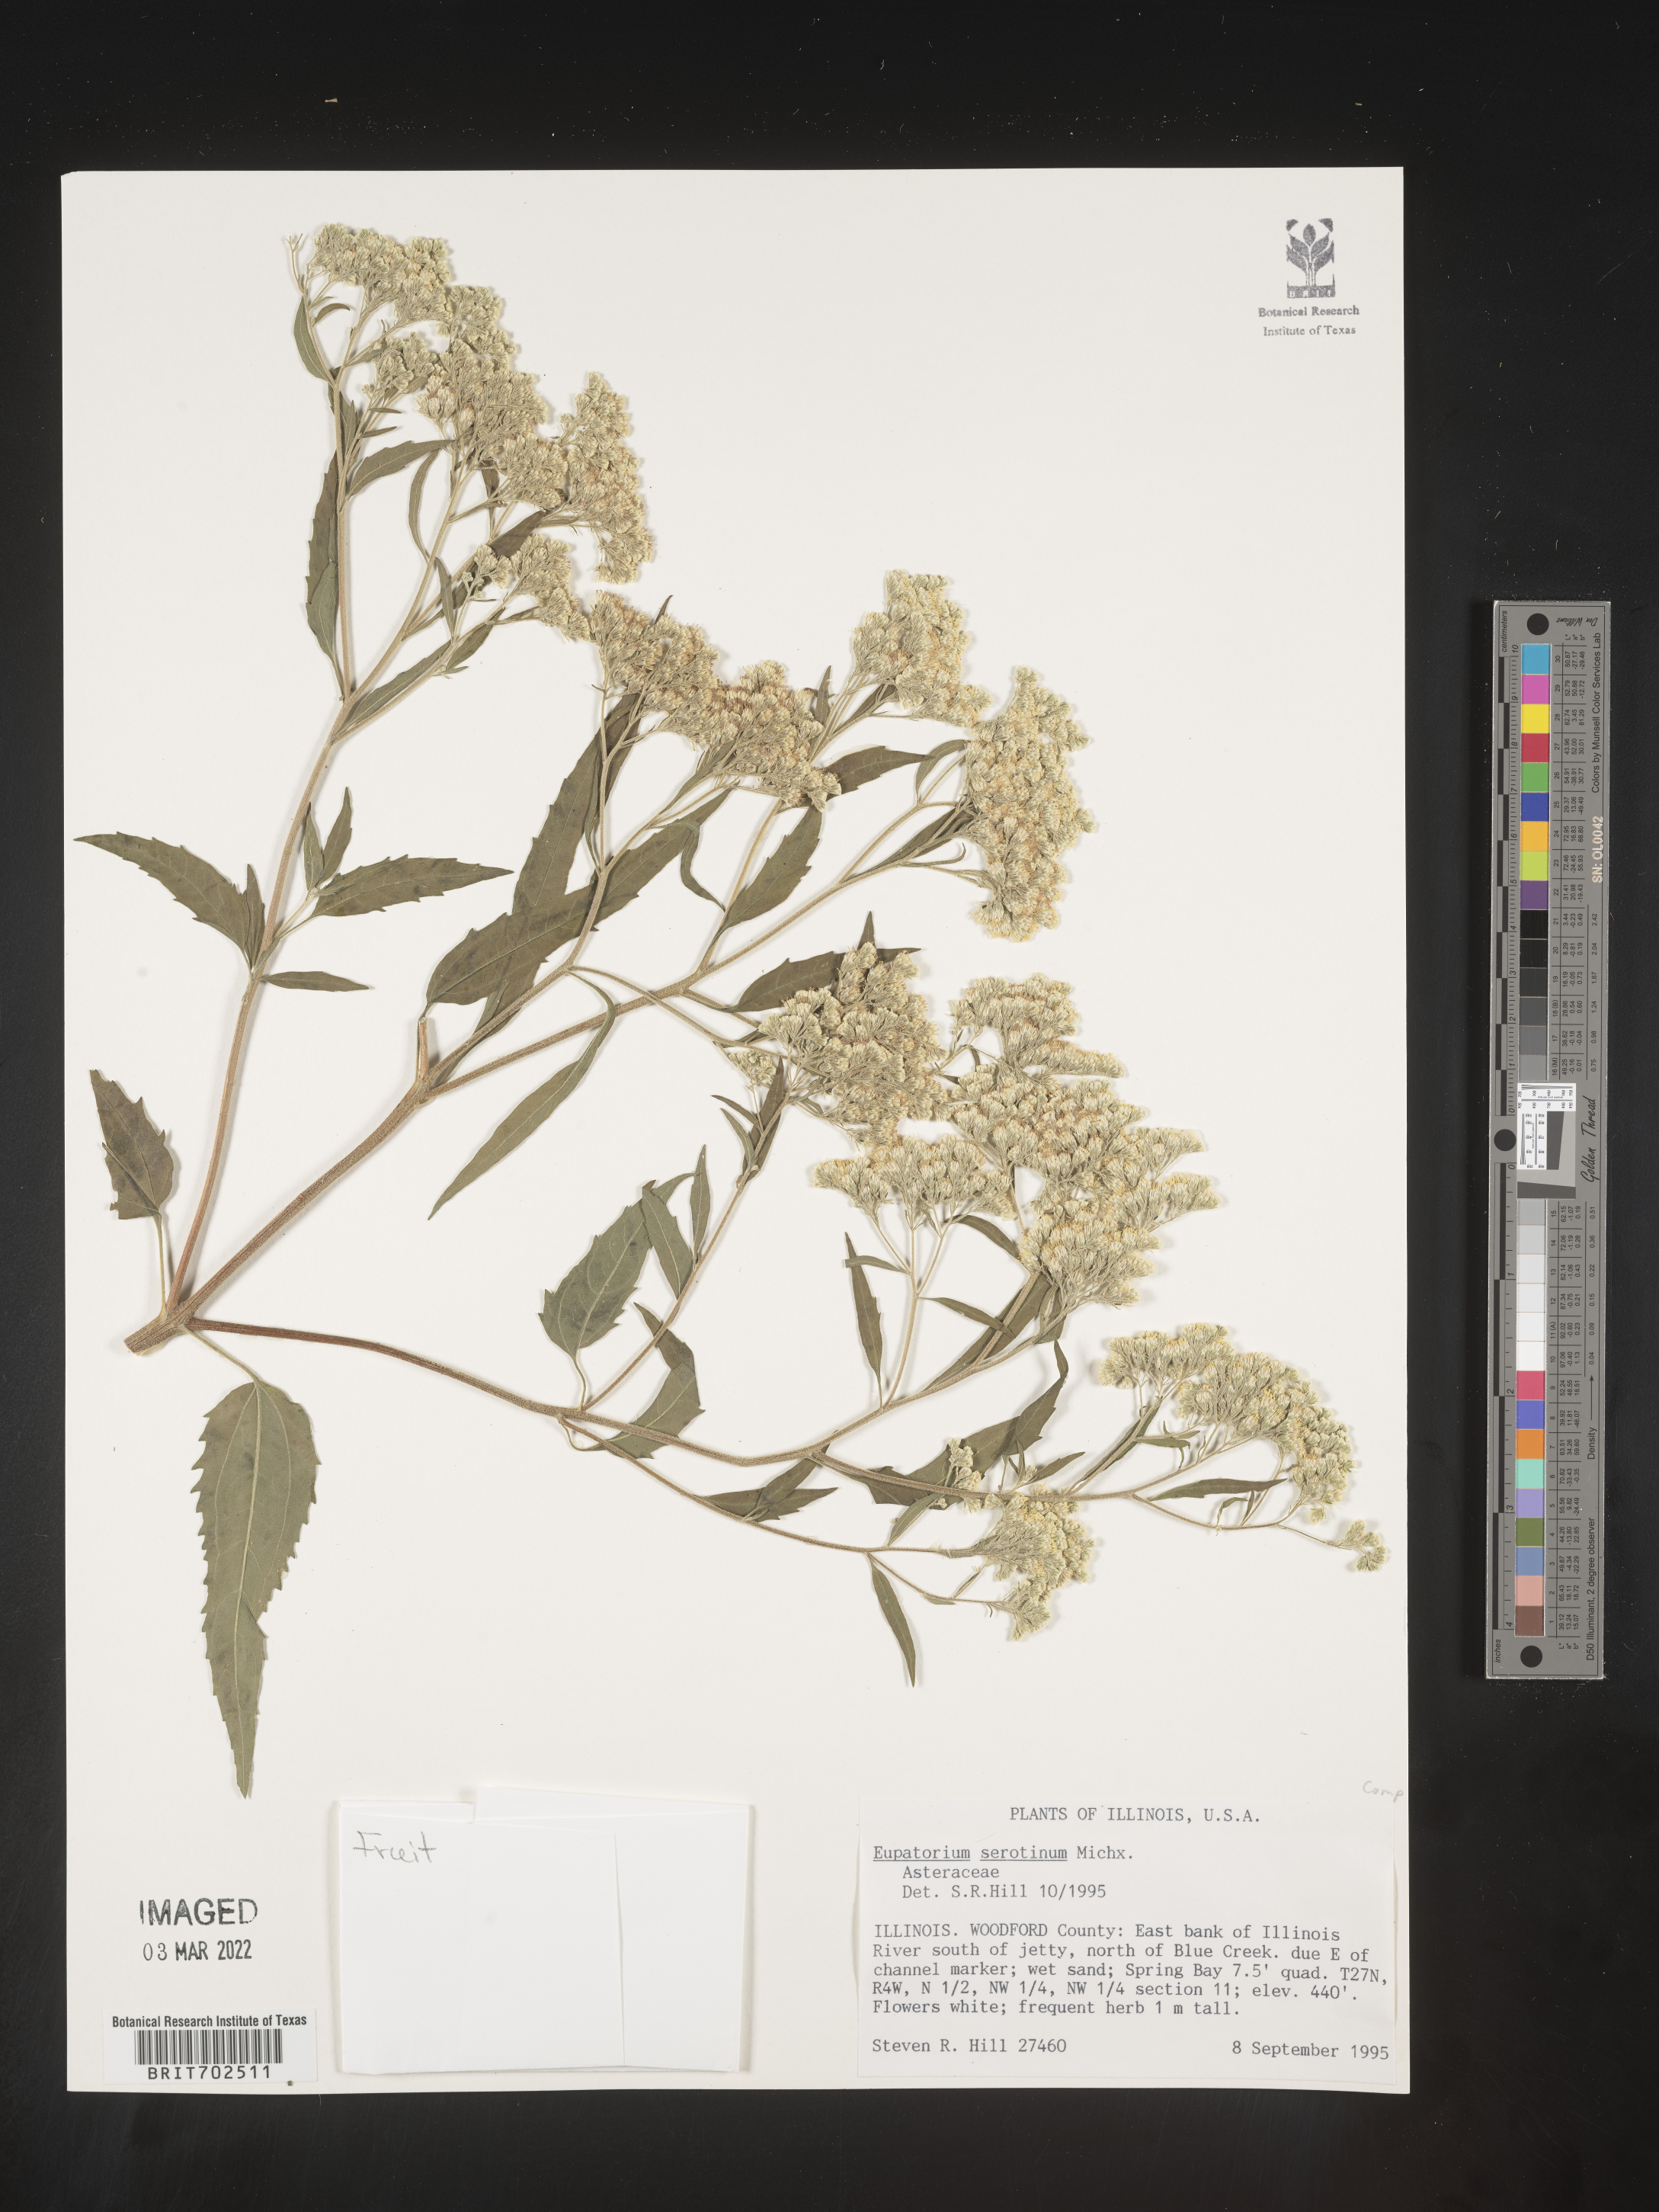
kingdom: Plantae
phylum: Tracheophyta
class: Magnoliopsida
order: Asterales
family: Asteraceae
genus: Eupatorium
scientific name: Eupatorium serotinum
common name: Late boneset
